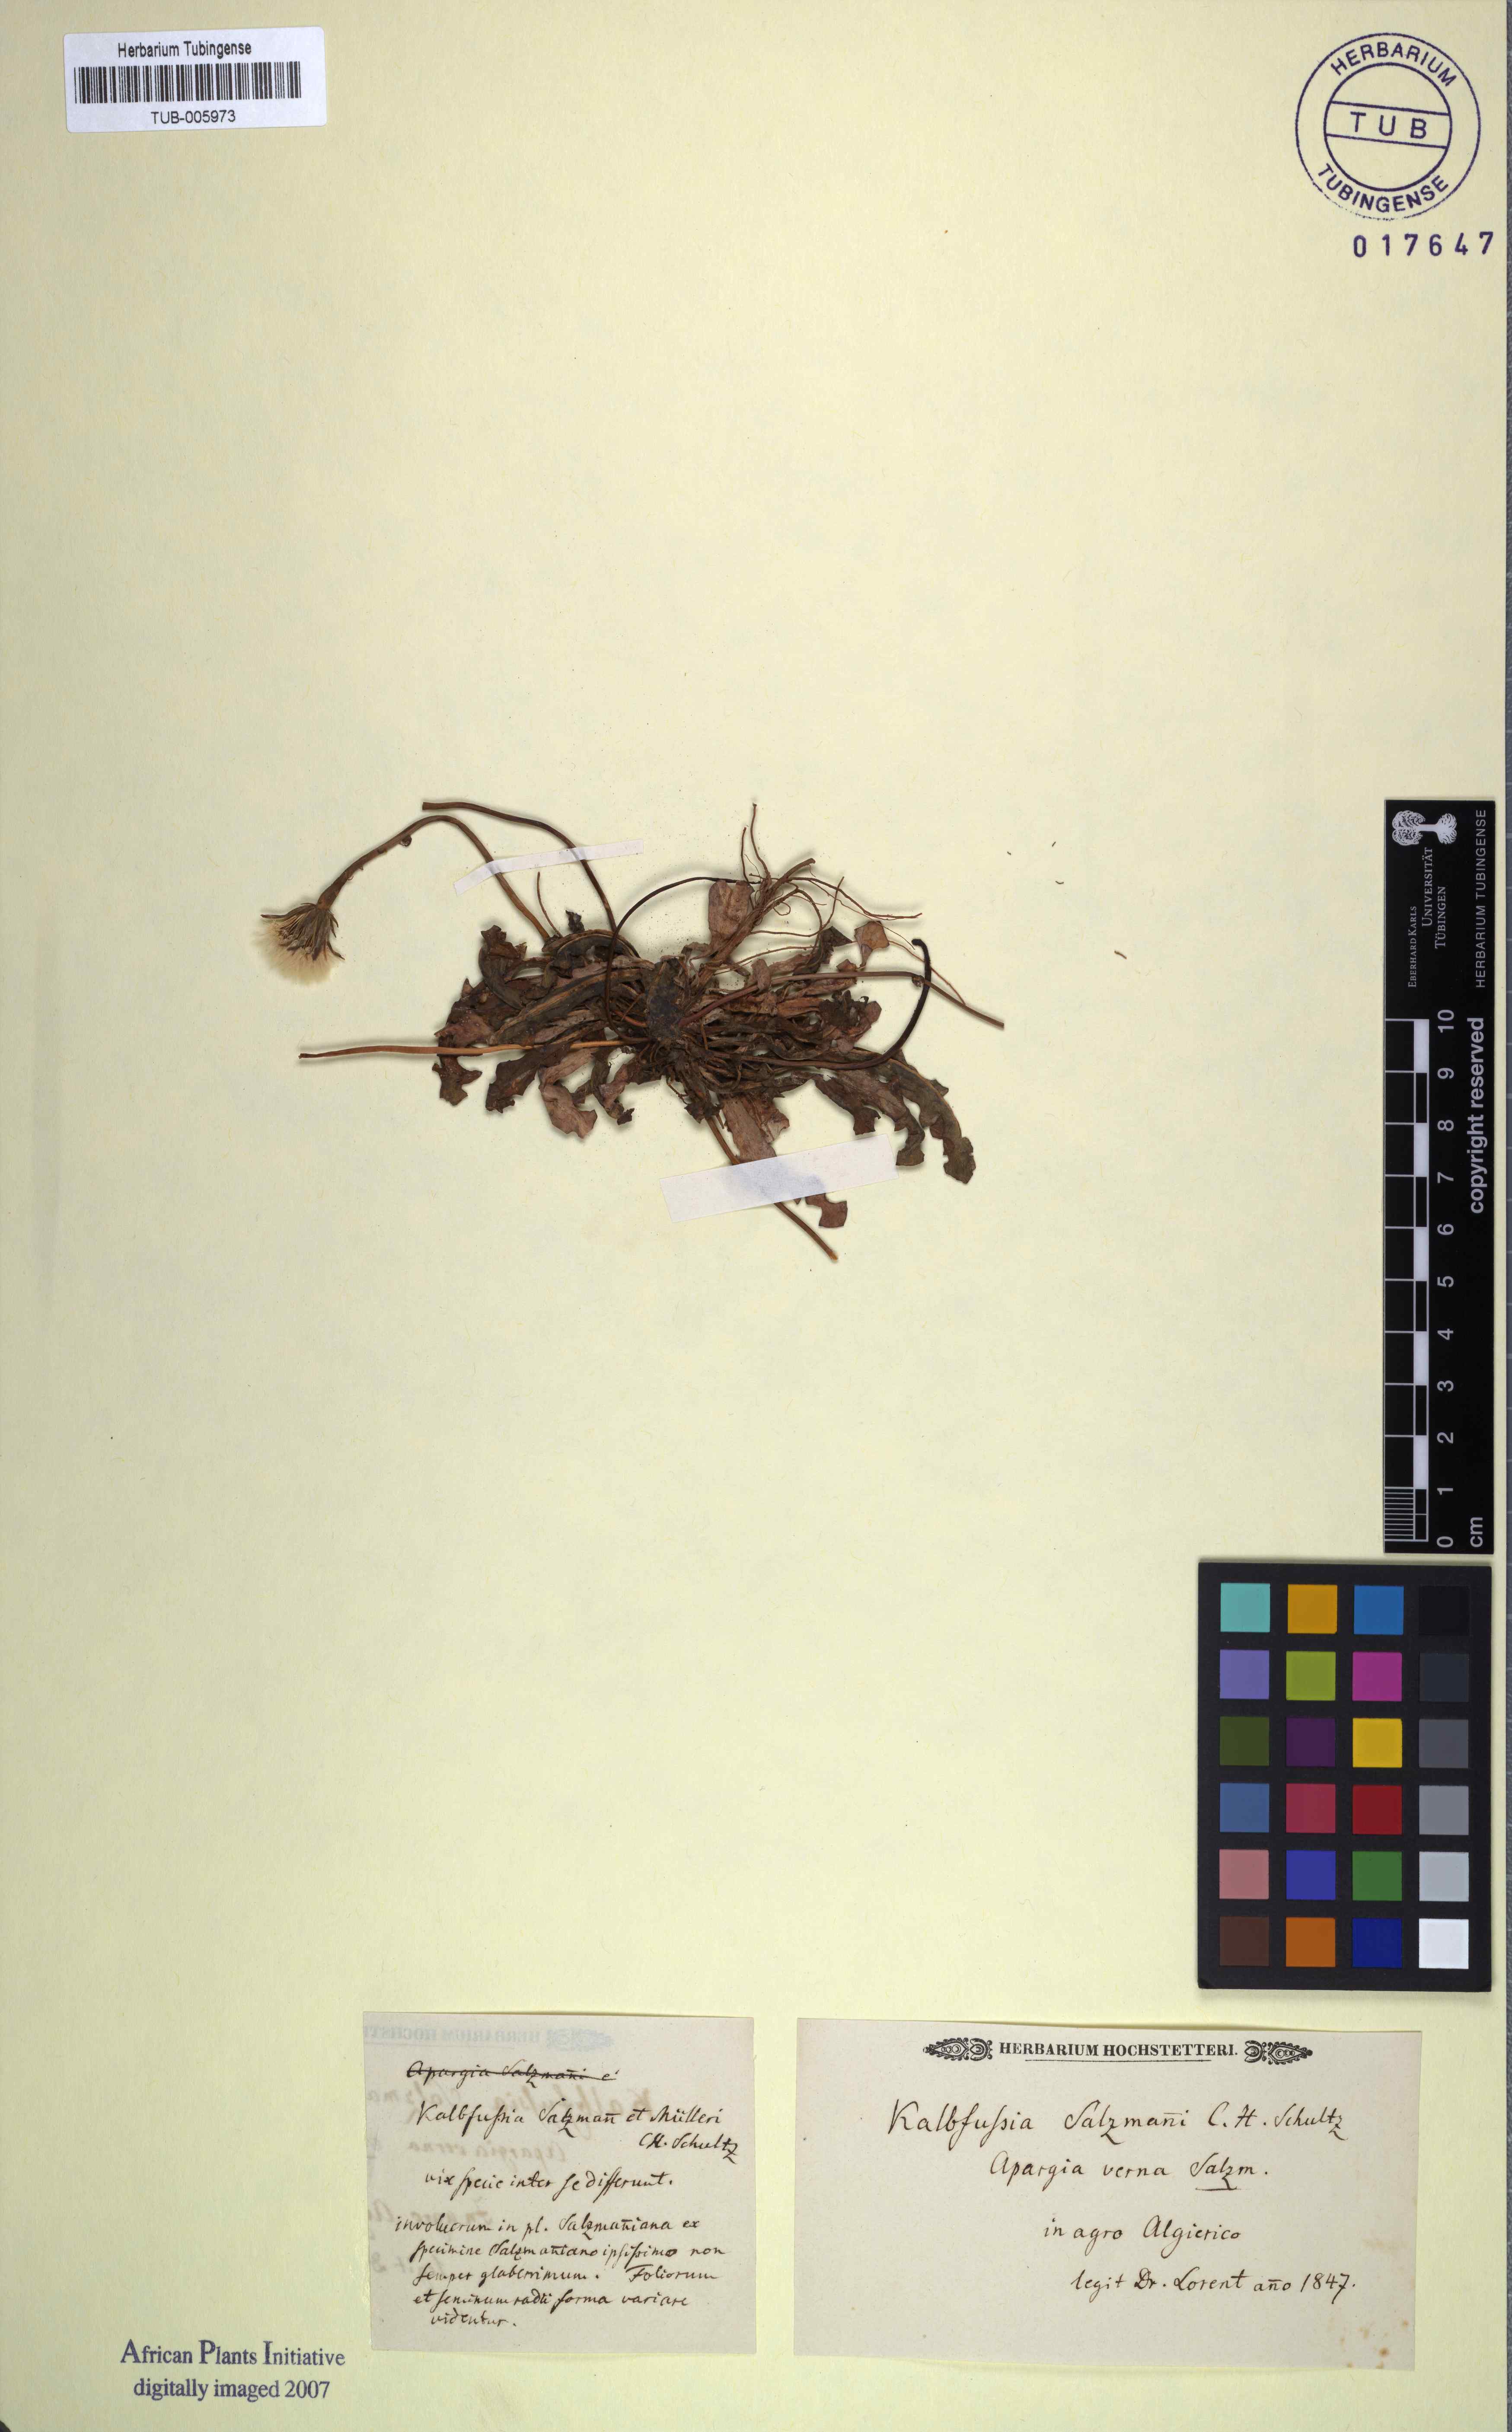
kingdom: Plantae
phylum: Tracheophyta
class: Magnoliopsida
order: Asterales
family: Asteraceae
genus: Scorzoneroides
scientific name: Scorzoneroides salzmannii
